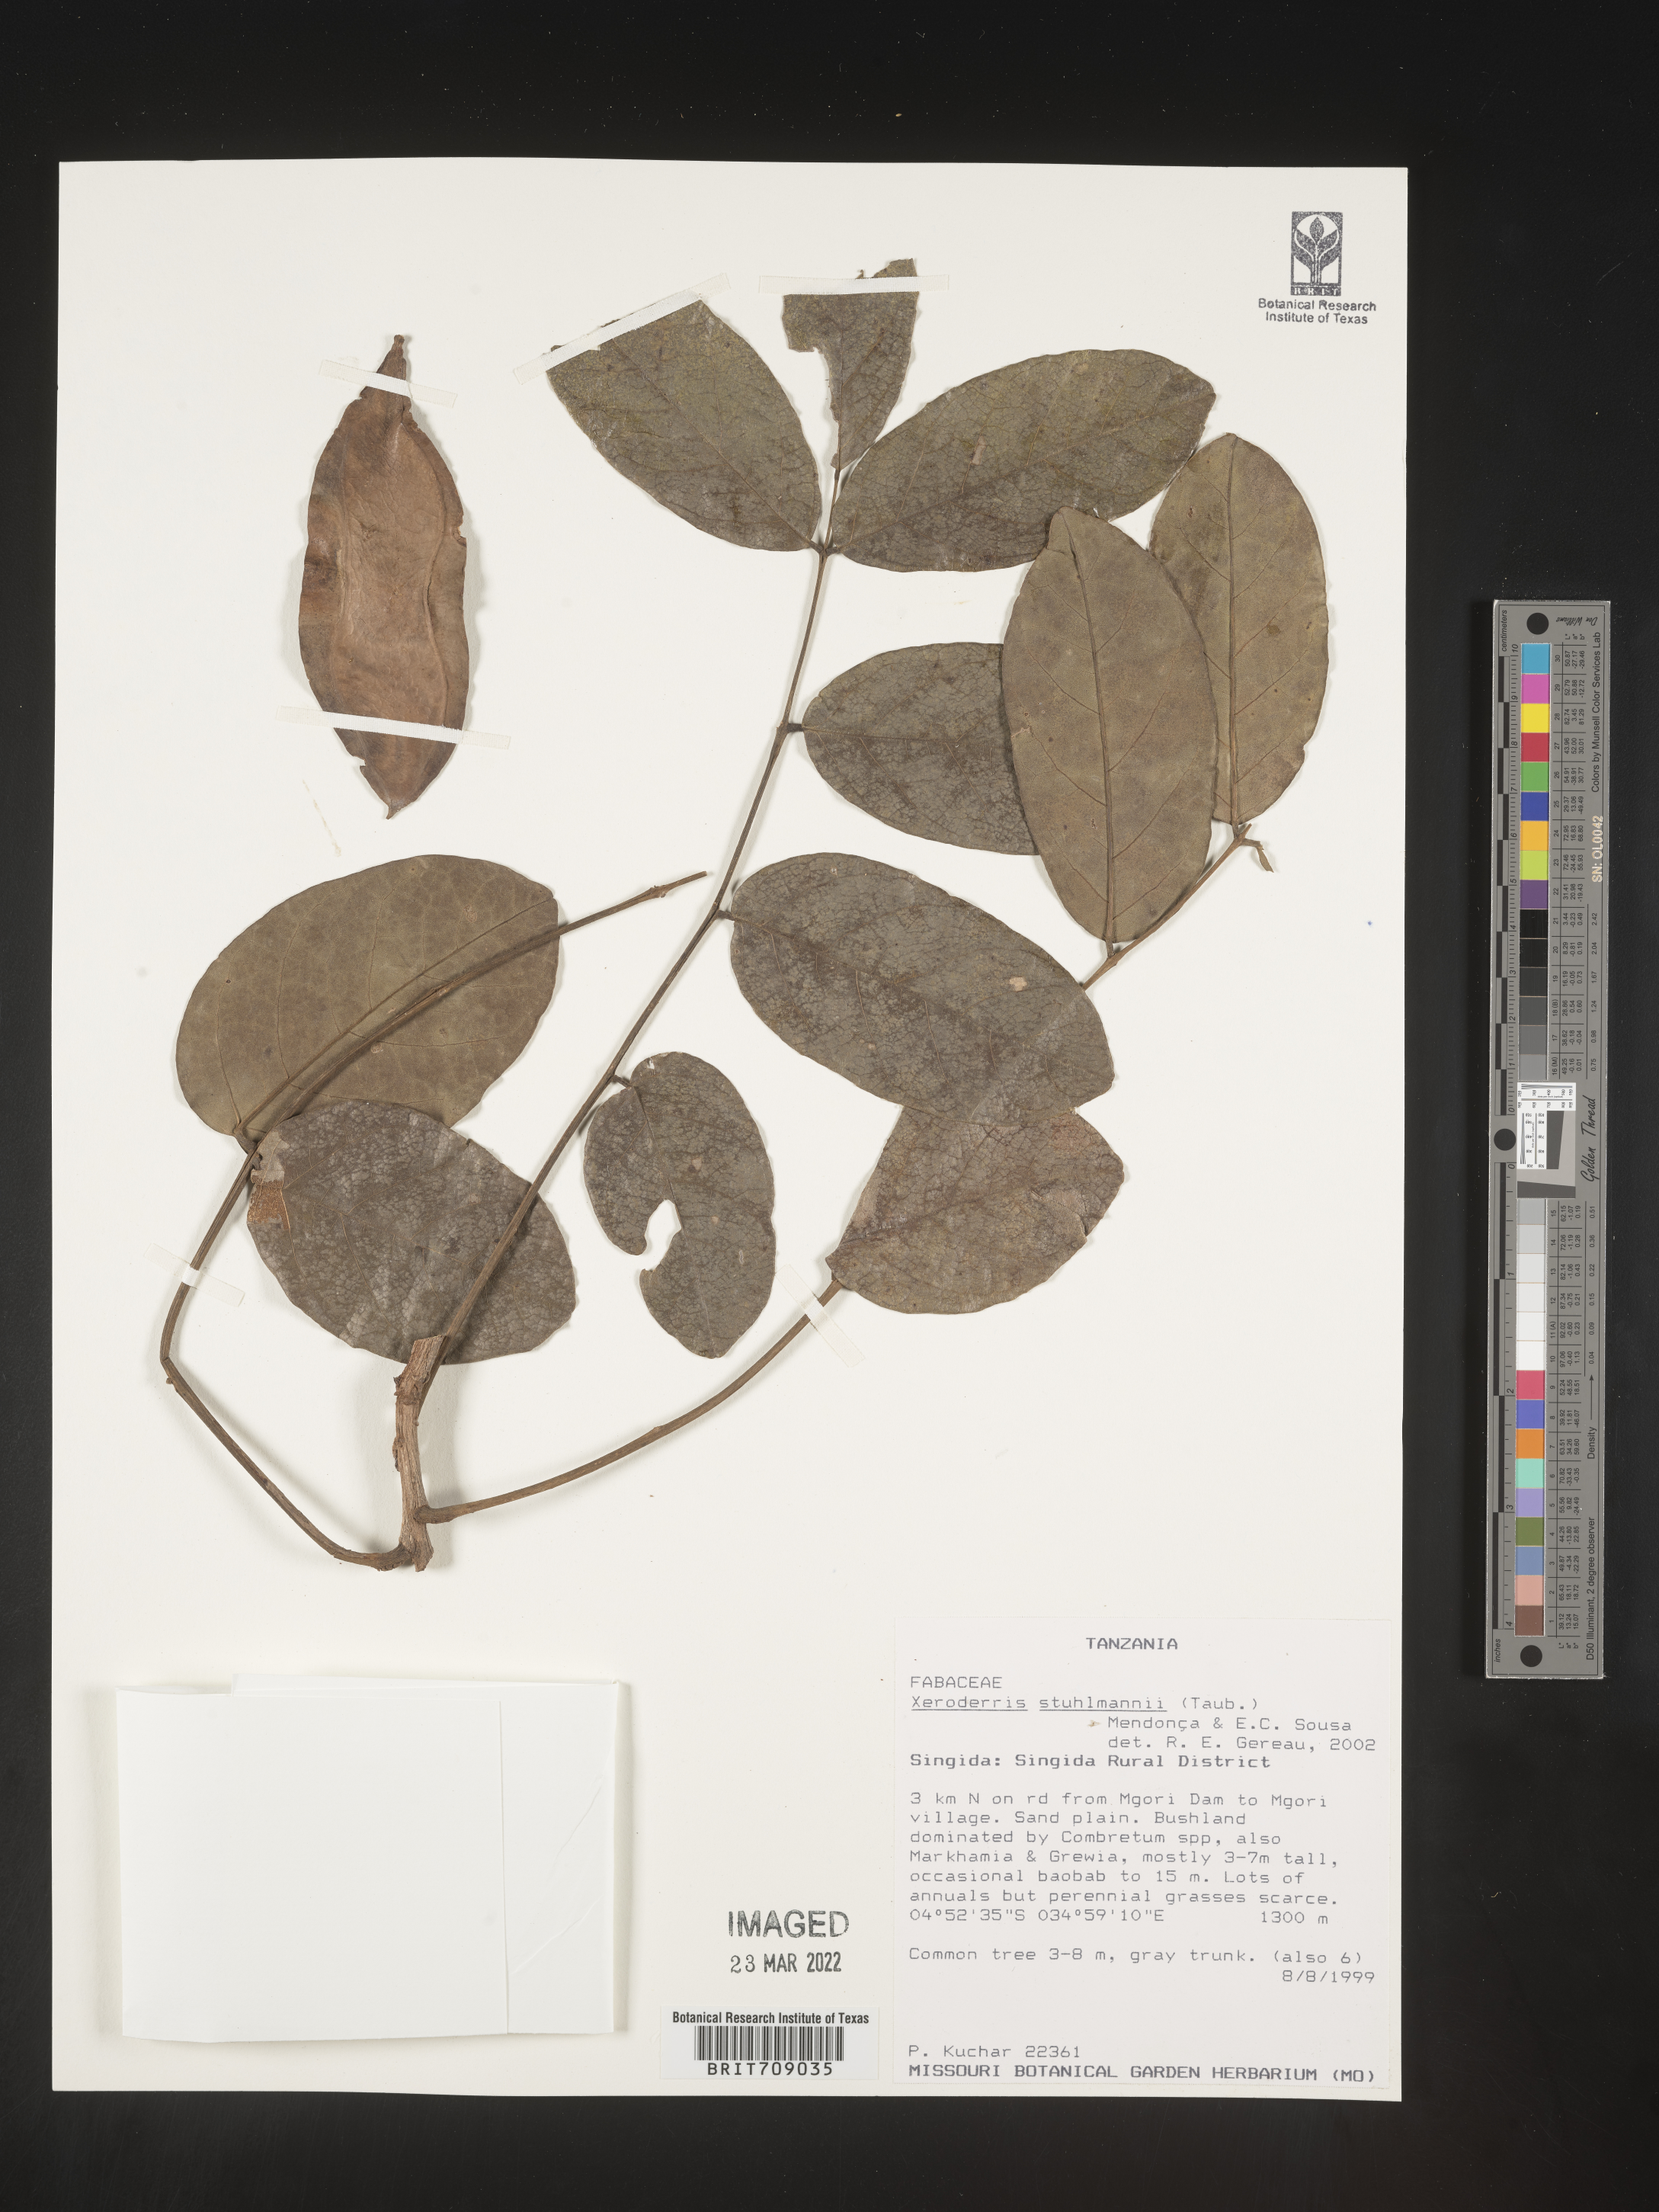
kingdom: Plantae
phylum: Tracheophyta
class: Magnoliopsida
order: Fabales
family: Fabaceae
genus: Aganope
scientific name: Aganope
